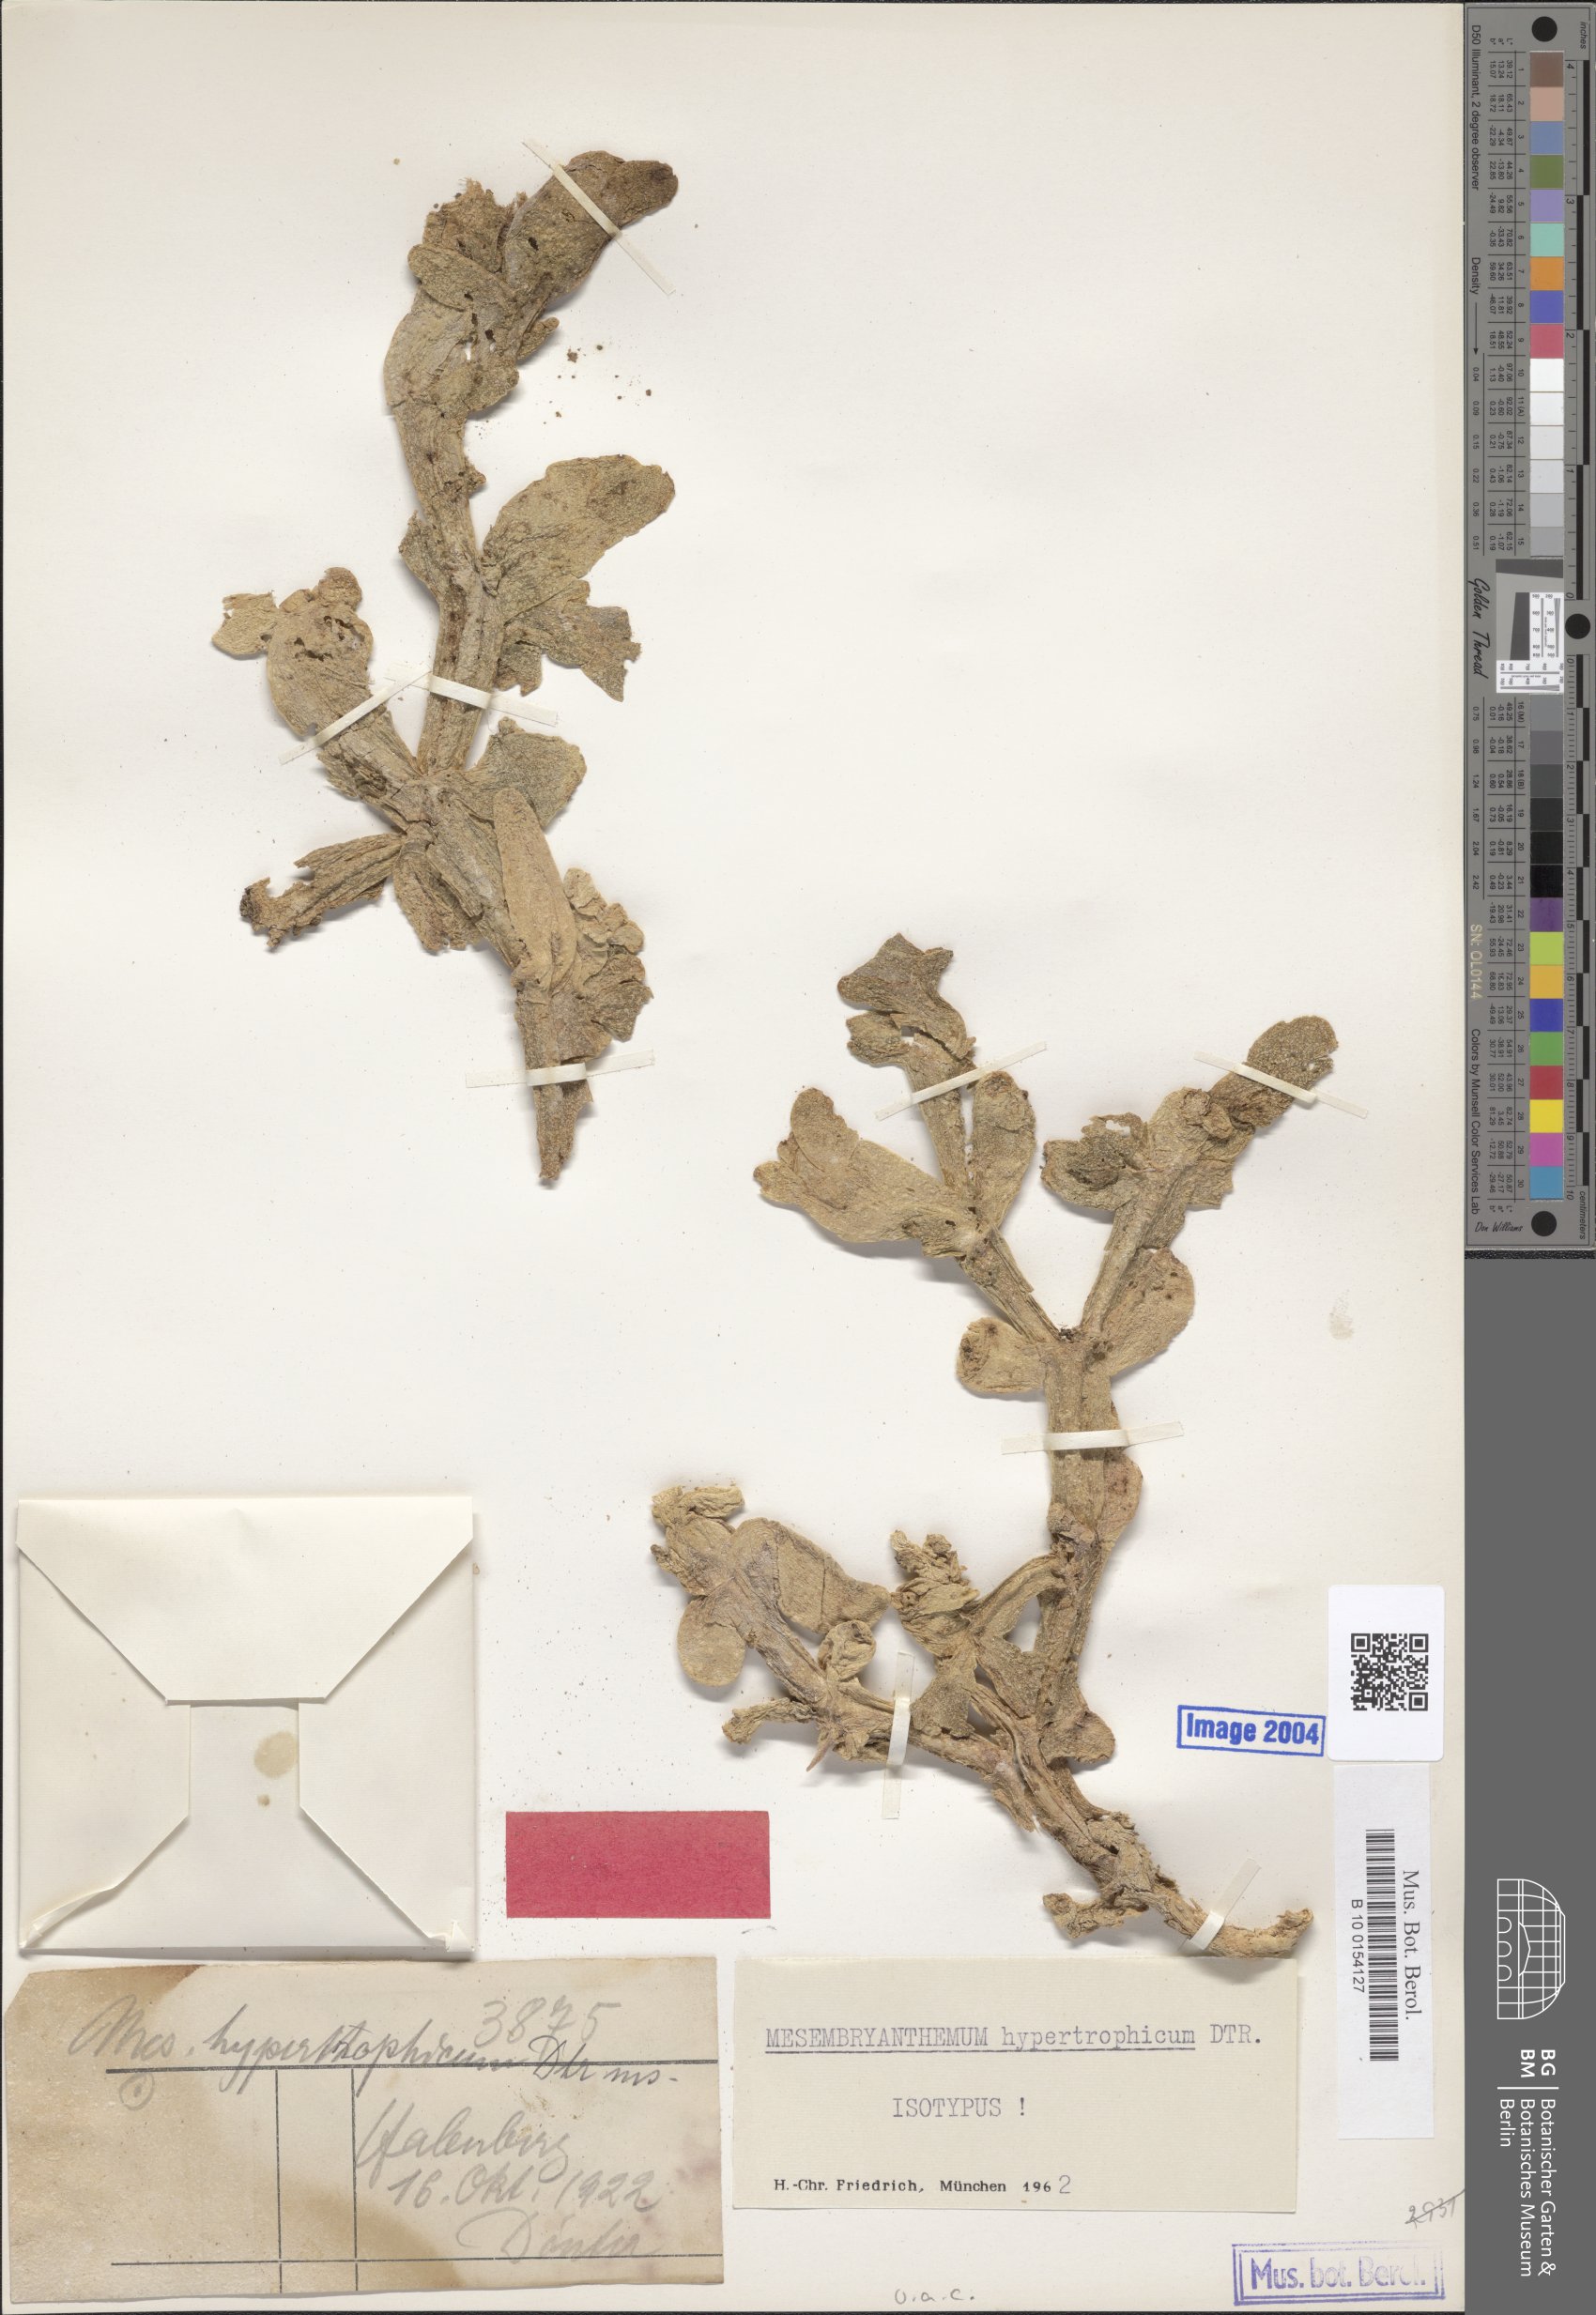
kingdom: Plantae
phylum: Tracheophyta
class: Magnoliopsida
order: Caryophyllales
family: Aizoaceae
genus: Mesembryanthemum
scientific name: Mesembryanthemum hypertrophicum
